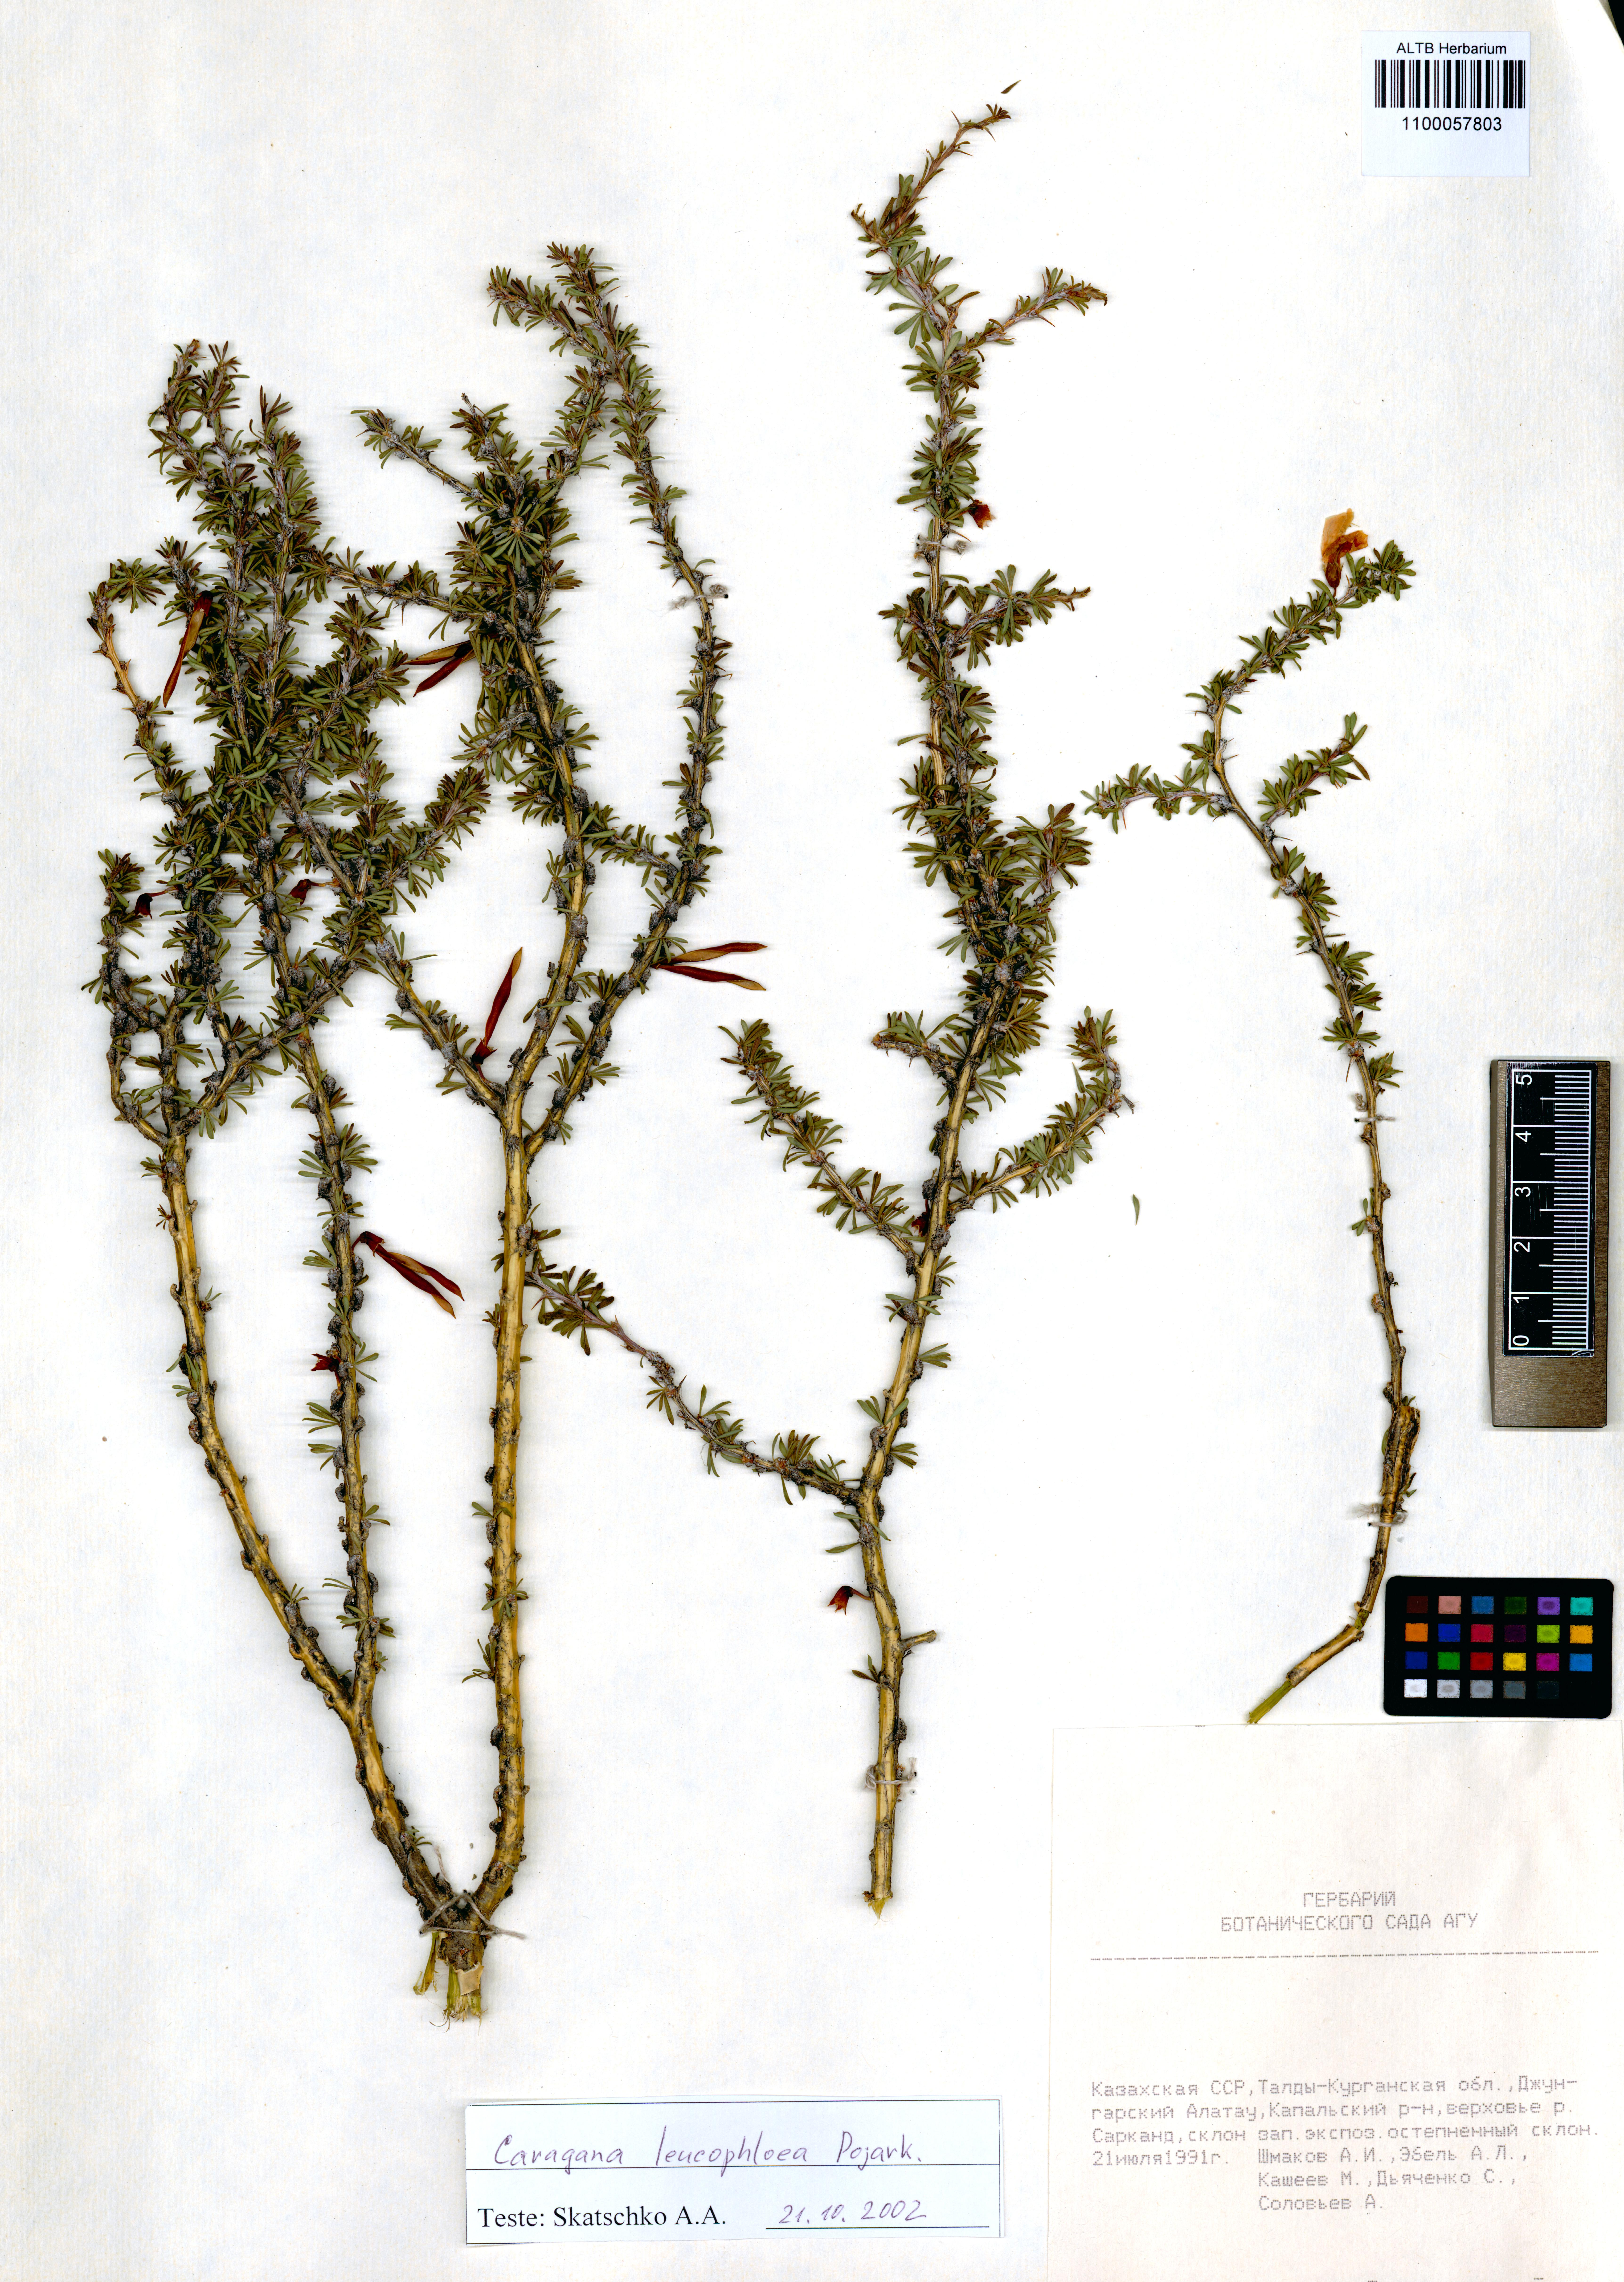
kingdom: Plantae
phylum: Tracheophyta
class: Magnoliopsida
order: Fabales
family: Fabaceae
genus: Caragana
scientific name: Caragana leucophloea
